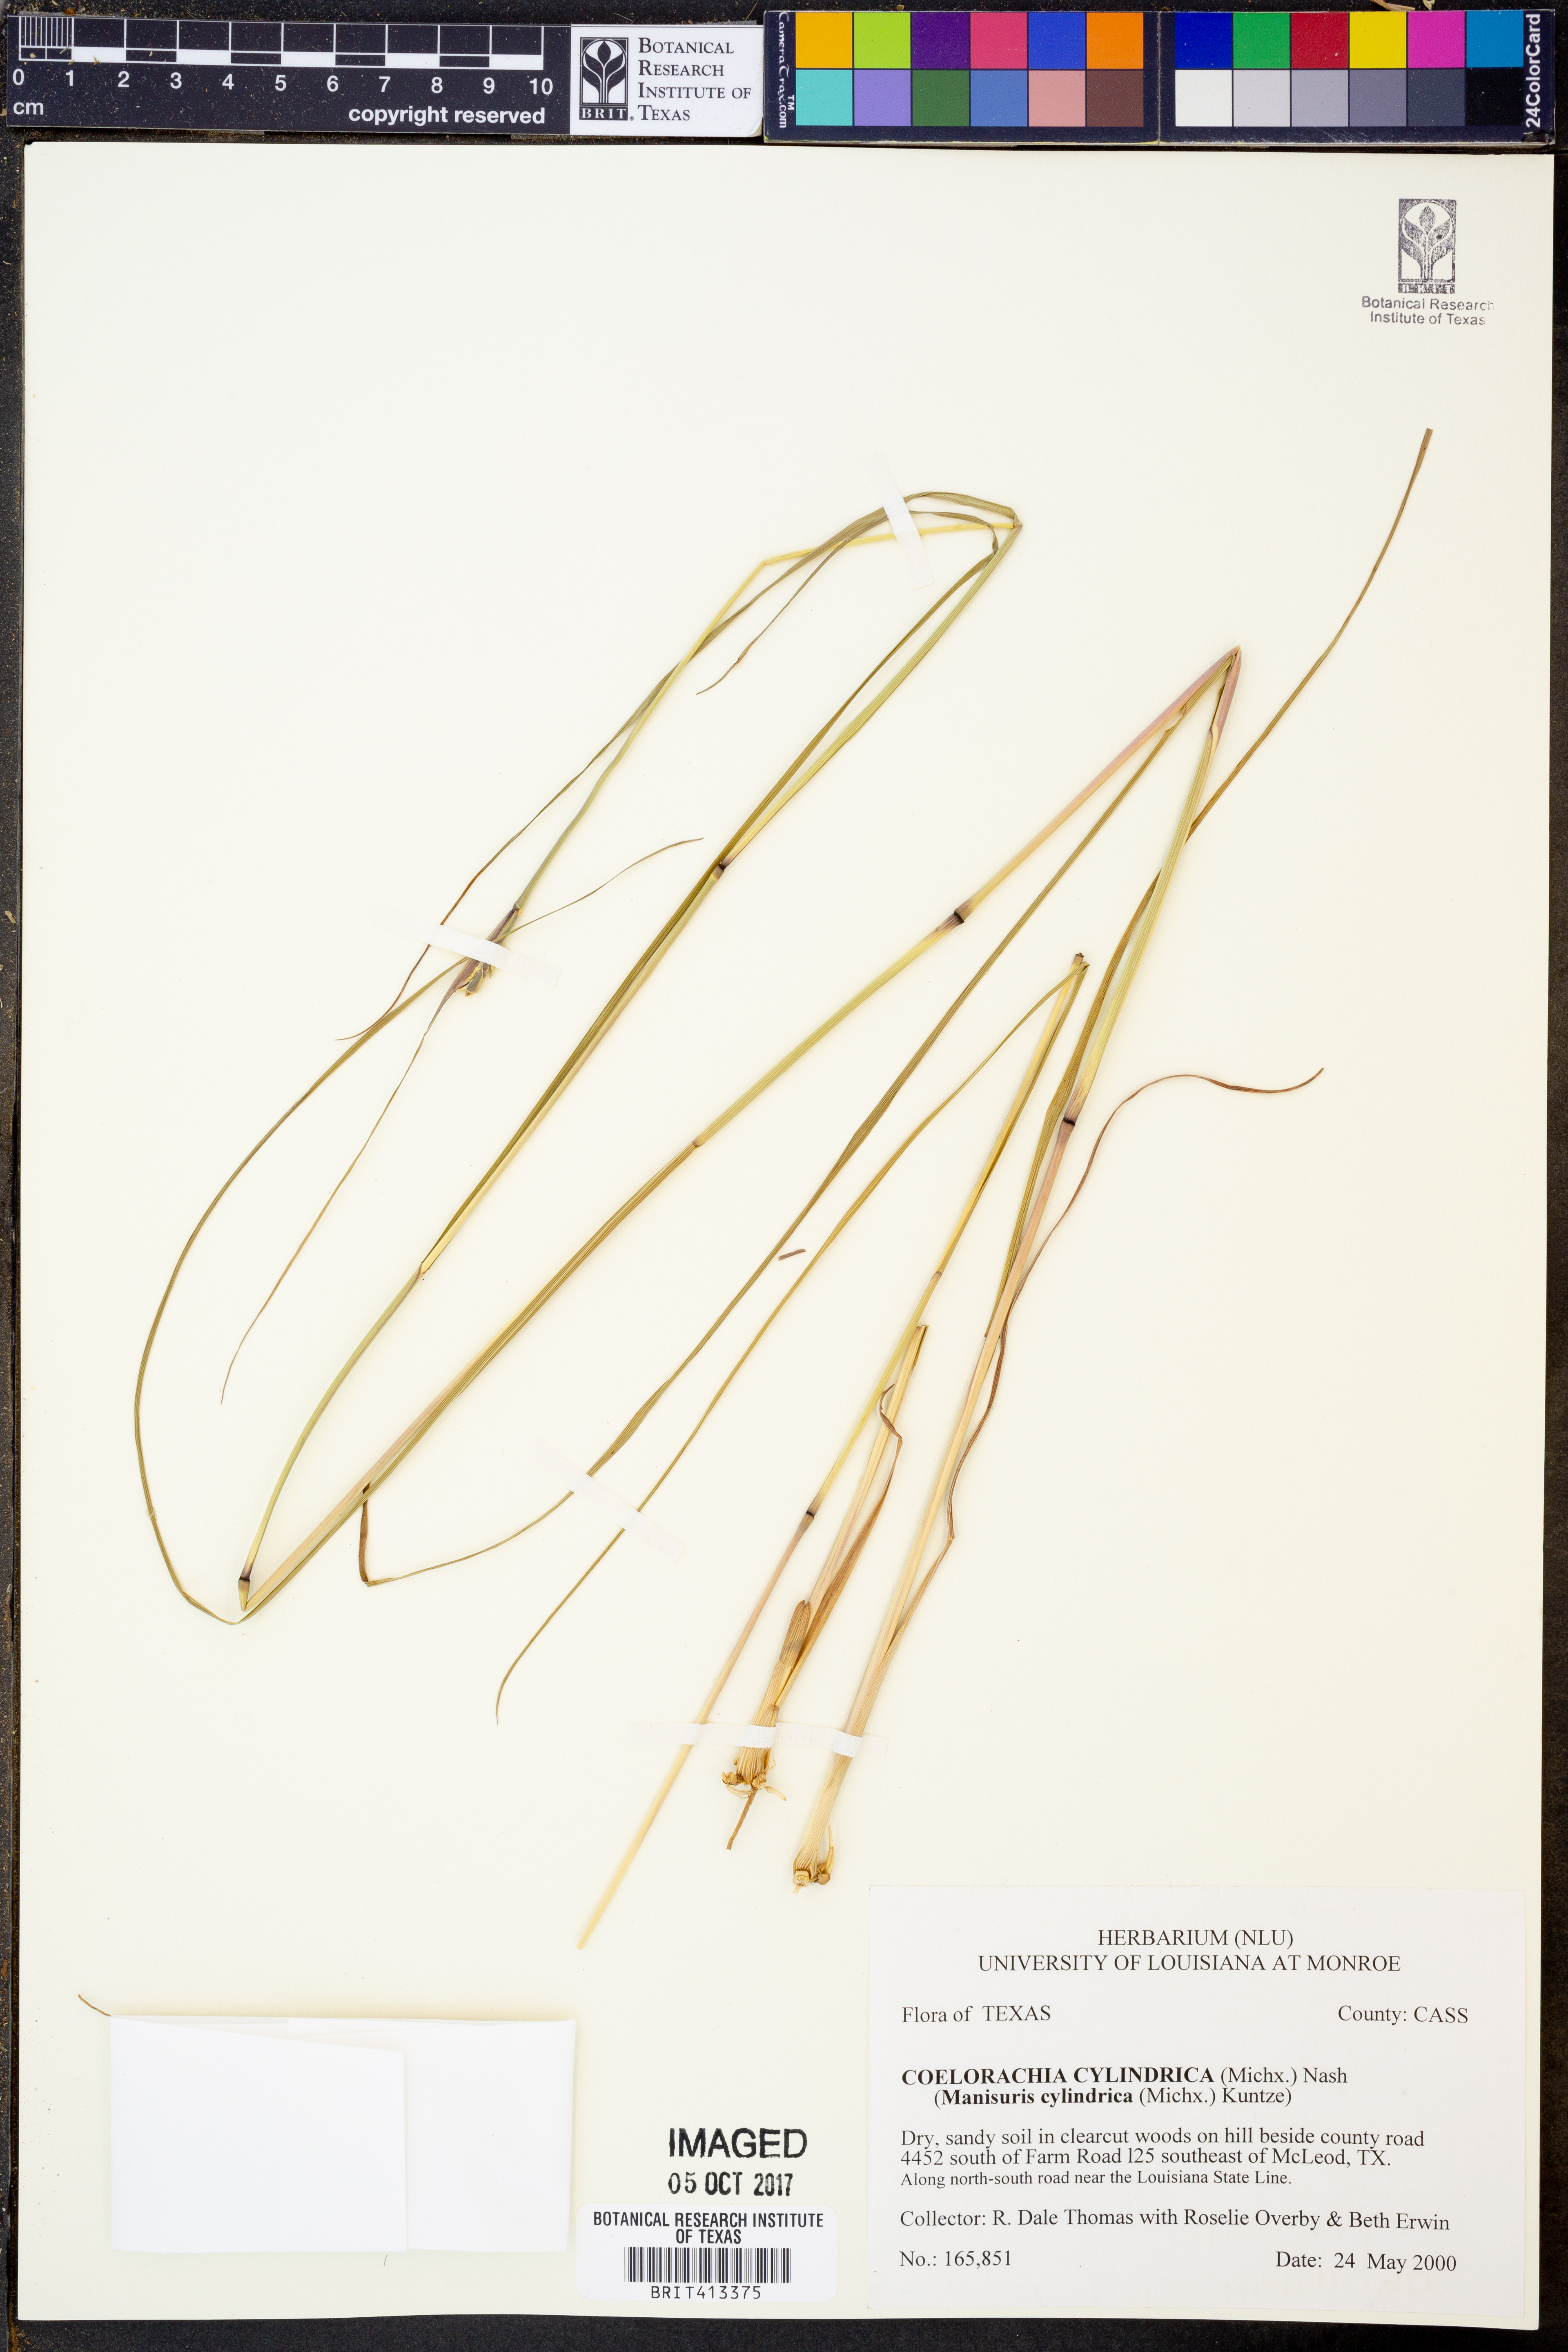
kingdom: Plantae
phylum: Tracheophyta
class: Liliopsida
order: Poales
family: Poaceae
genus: Rottboellia
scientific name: Rottboellia campestris
